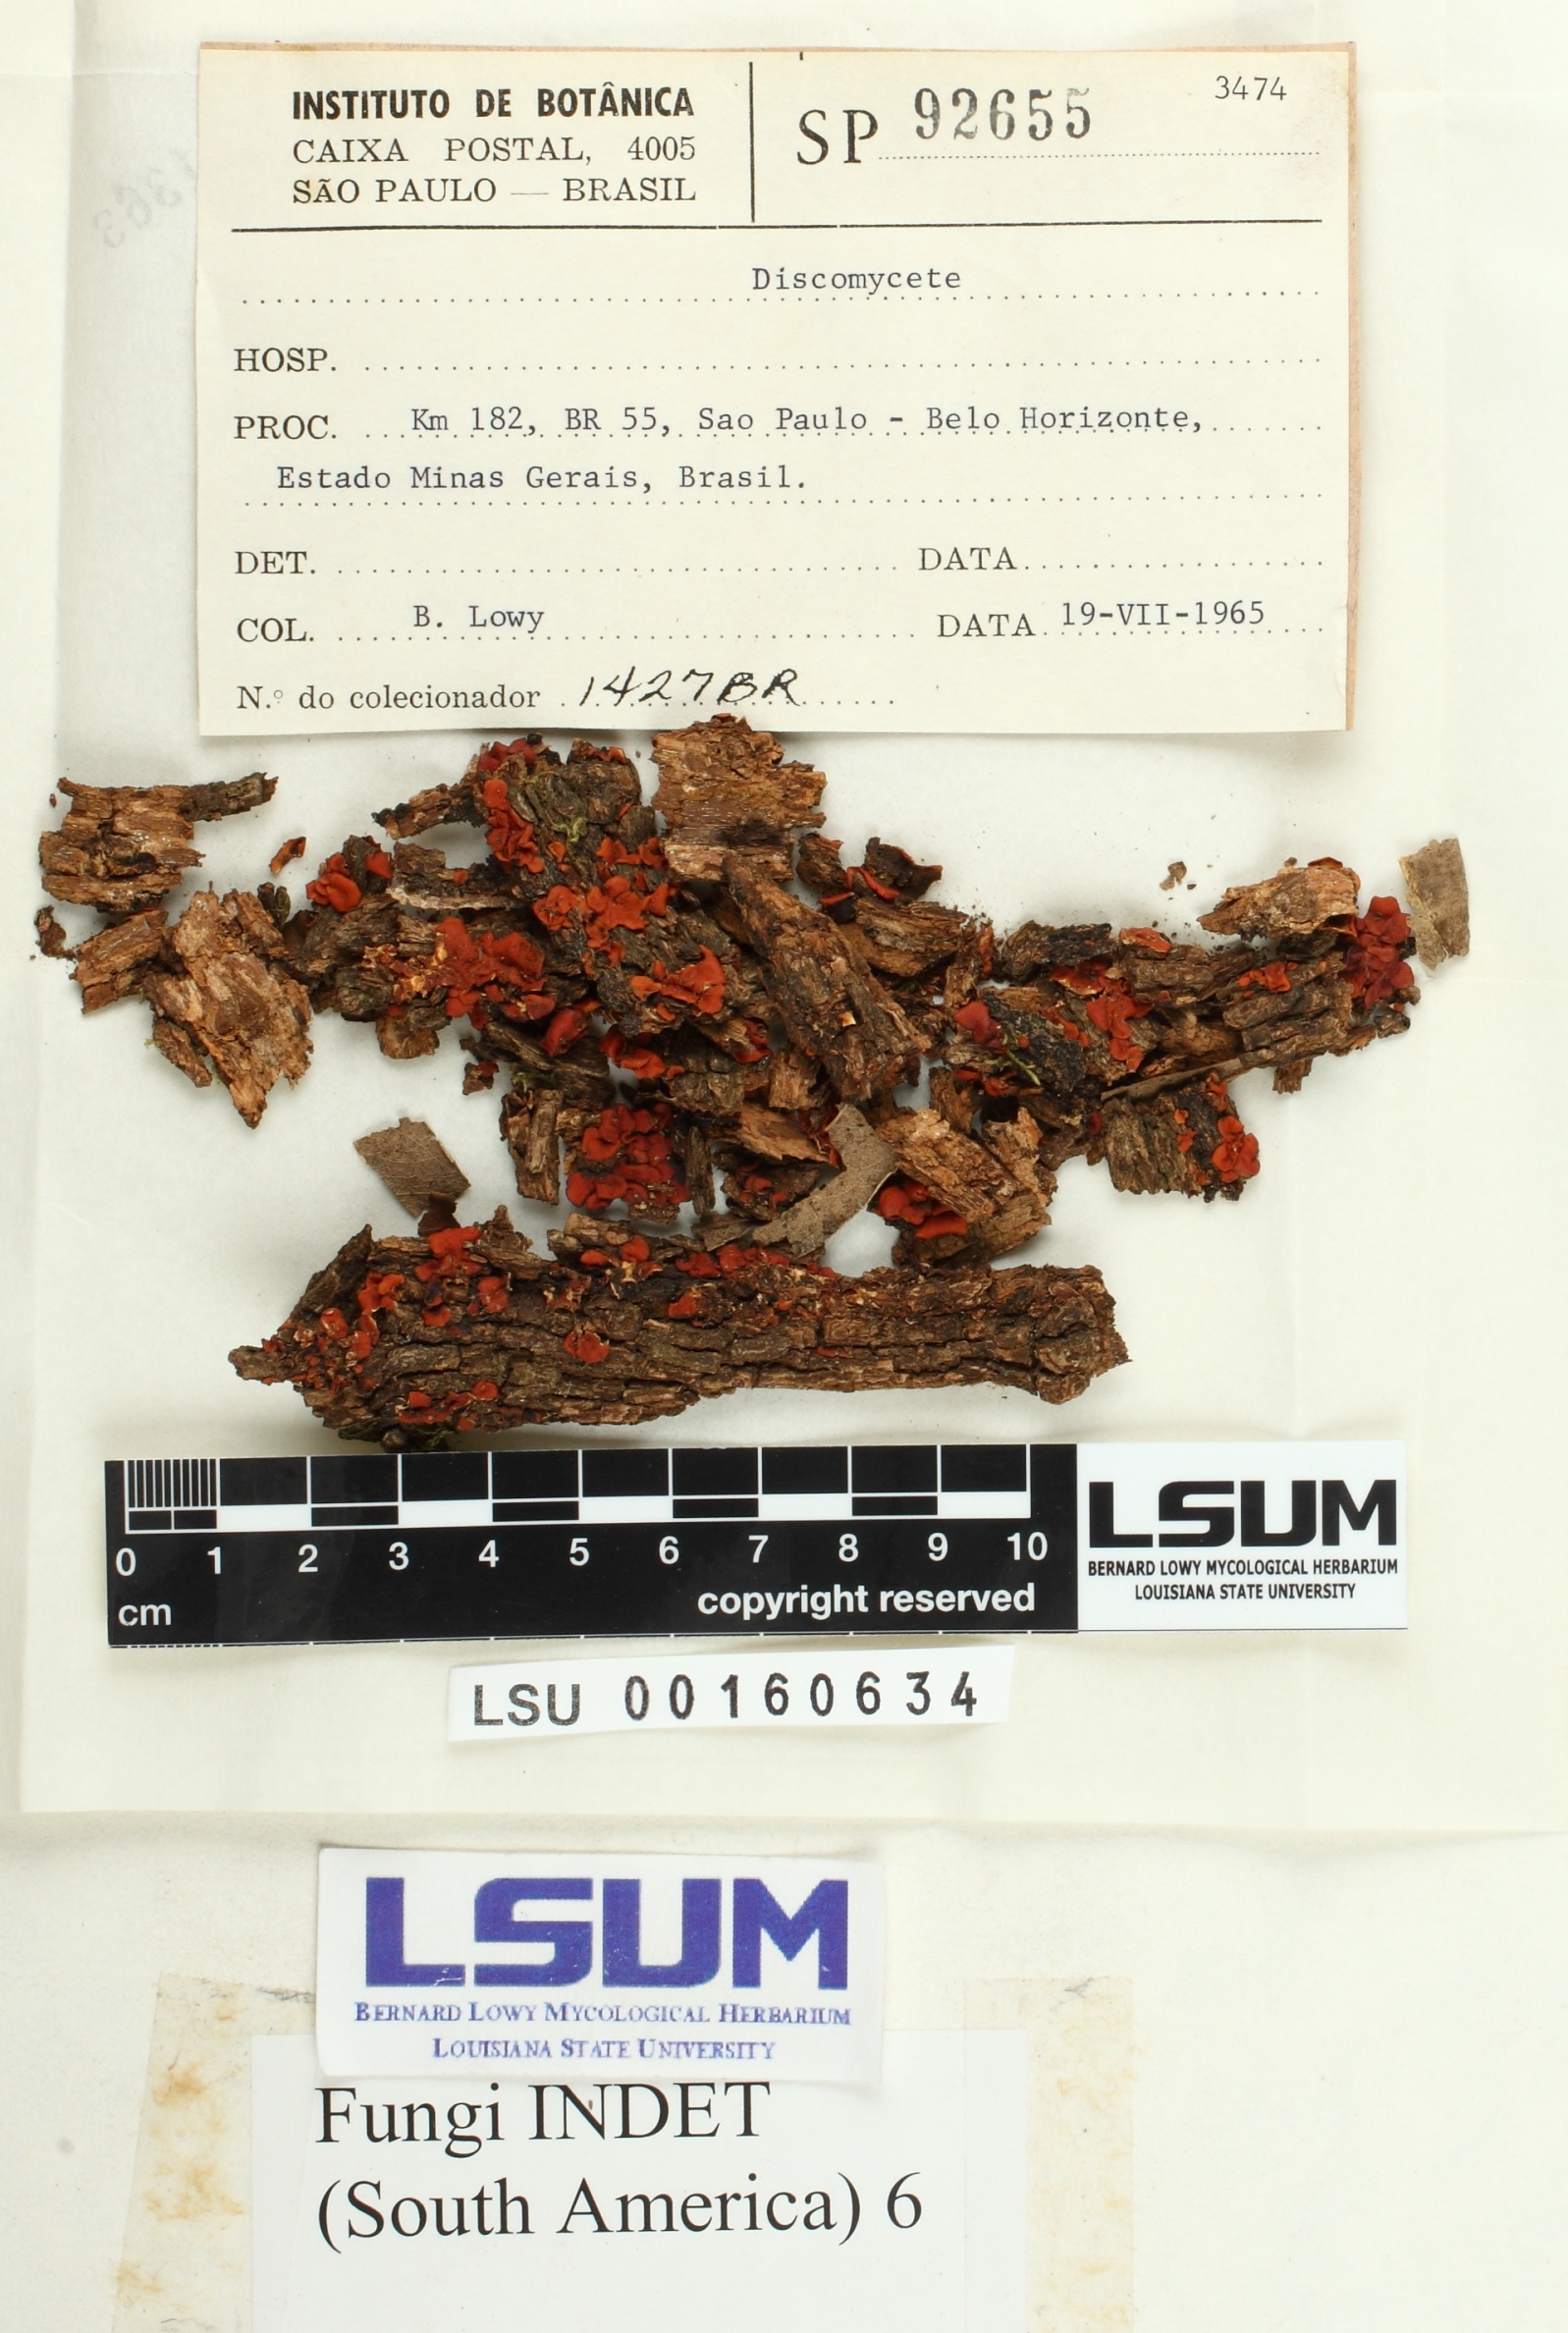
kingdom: Fungi
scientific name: Fungi
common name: Fungi
